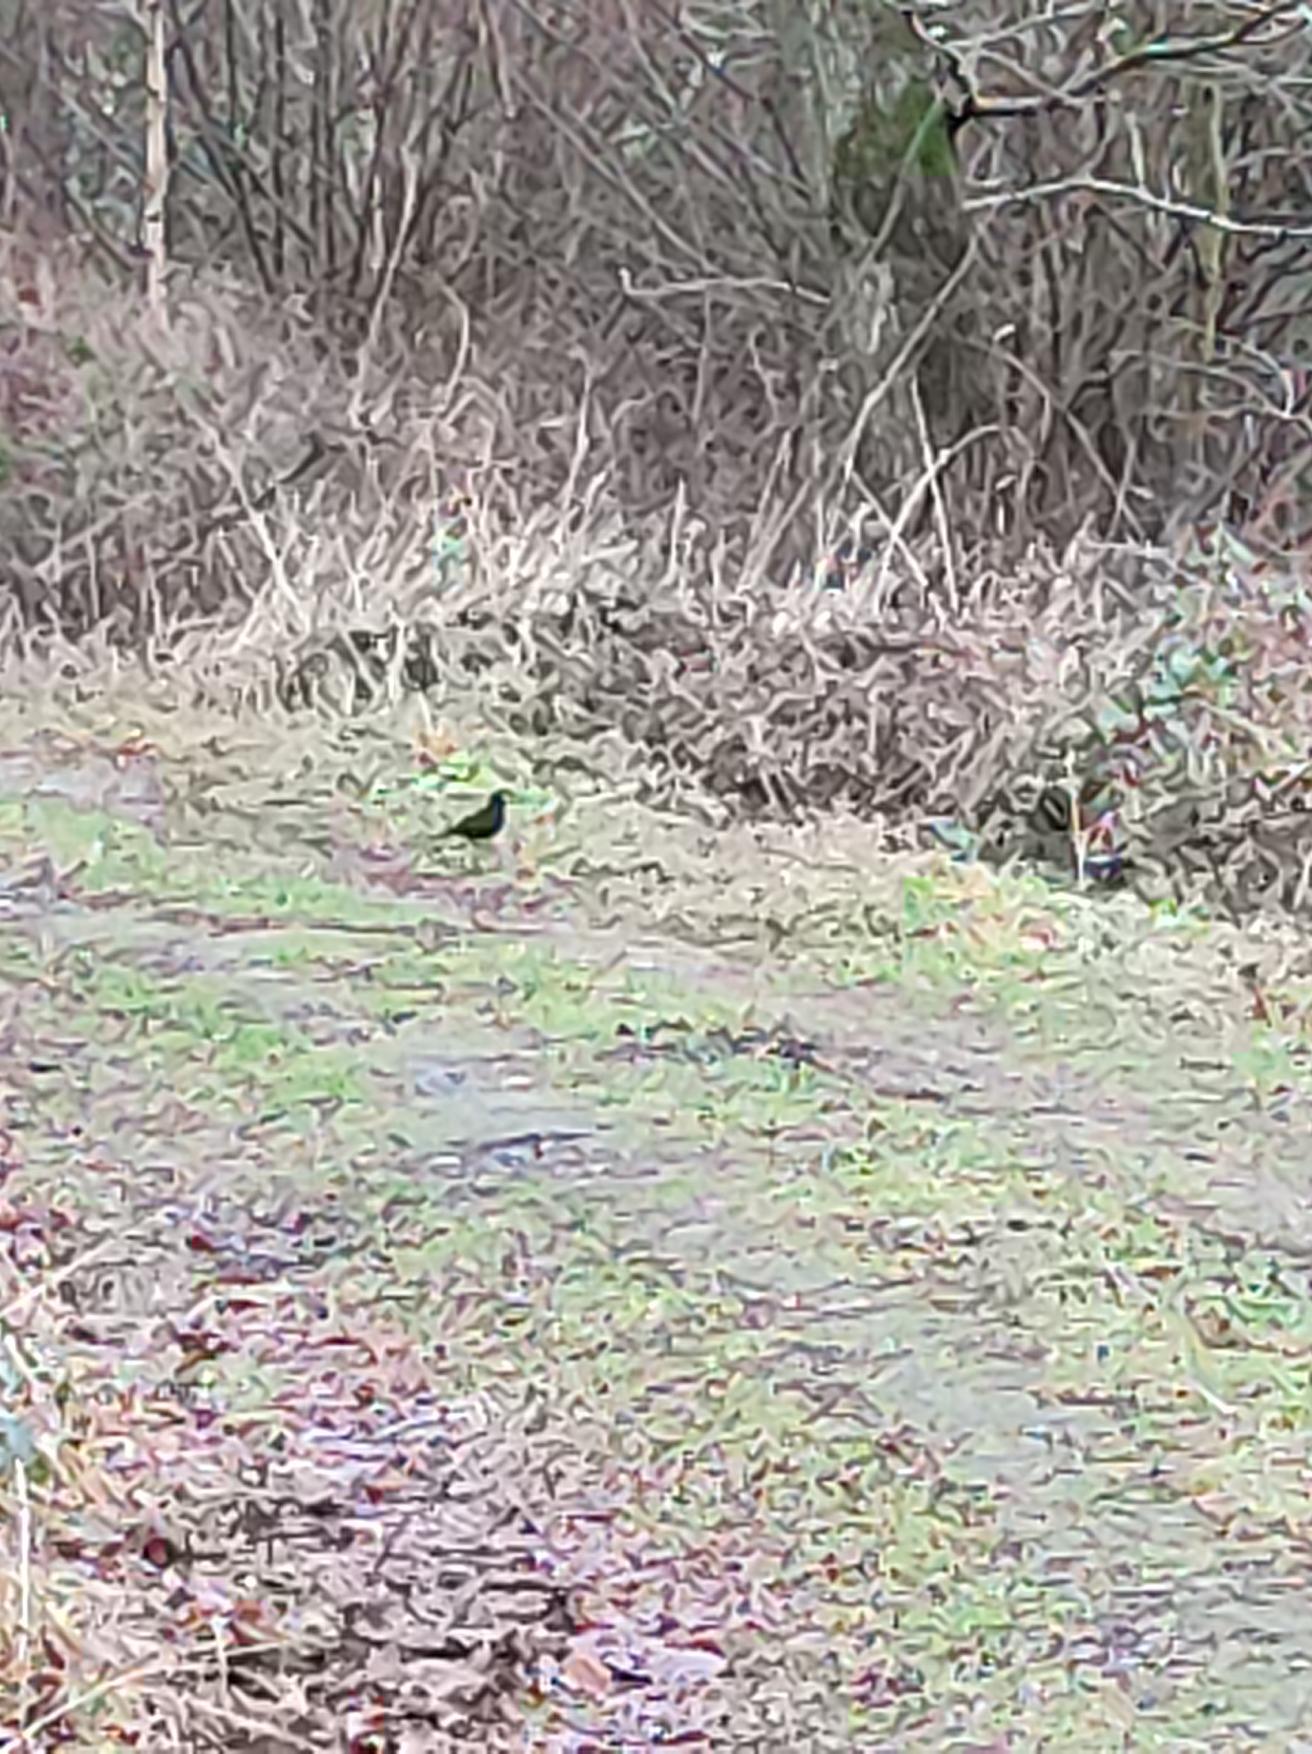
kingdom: Animalia
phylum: Chordata
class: Aves
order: Passeriformes
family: Turdidae
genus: Turdus
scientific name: Turdus merula
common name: Solsort
